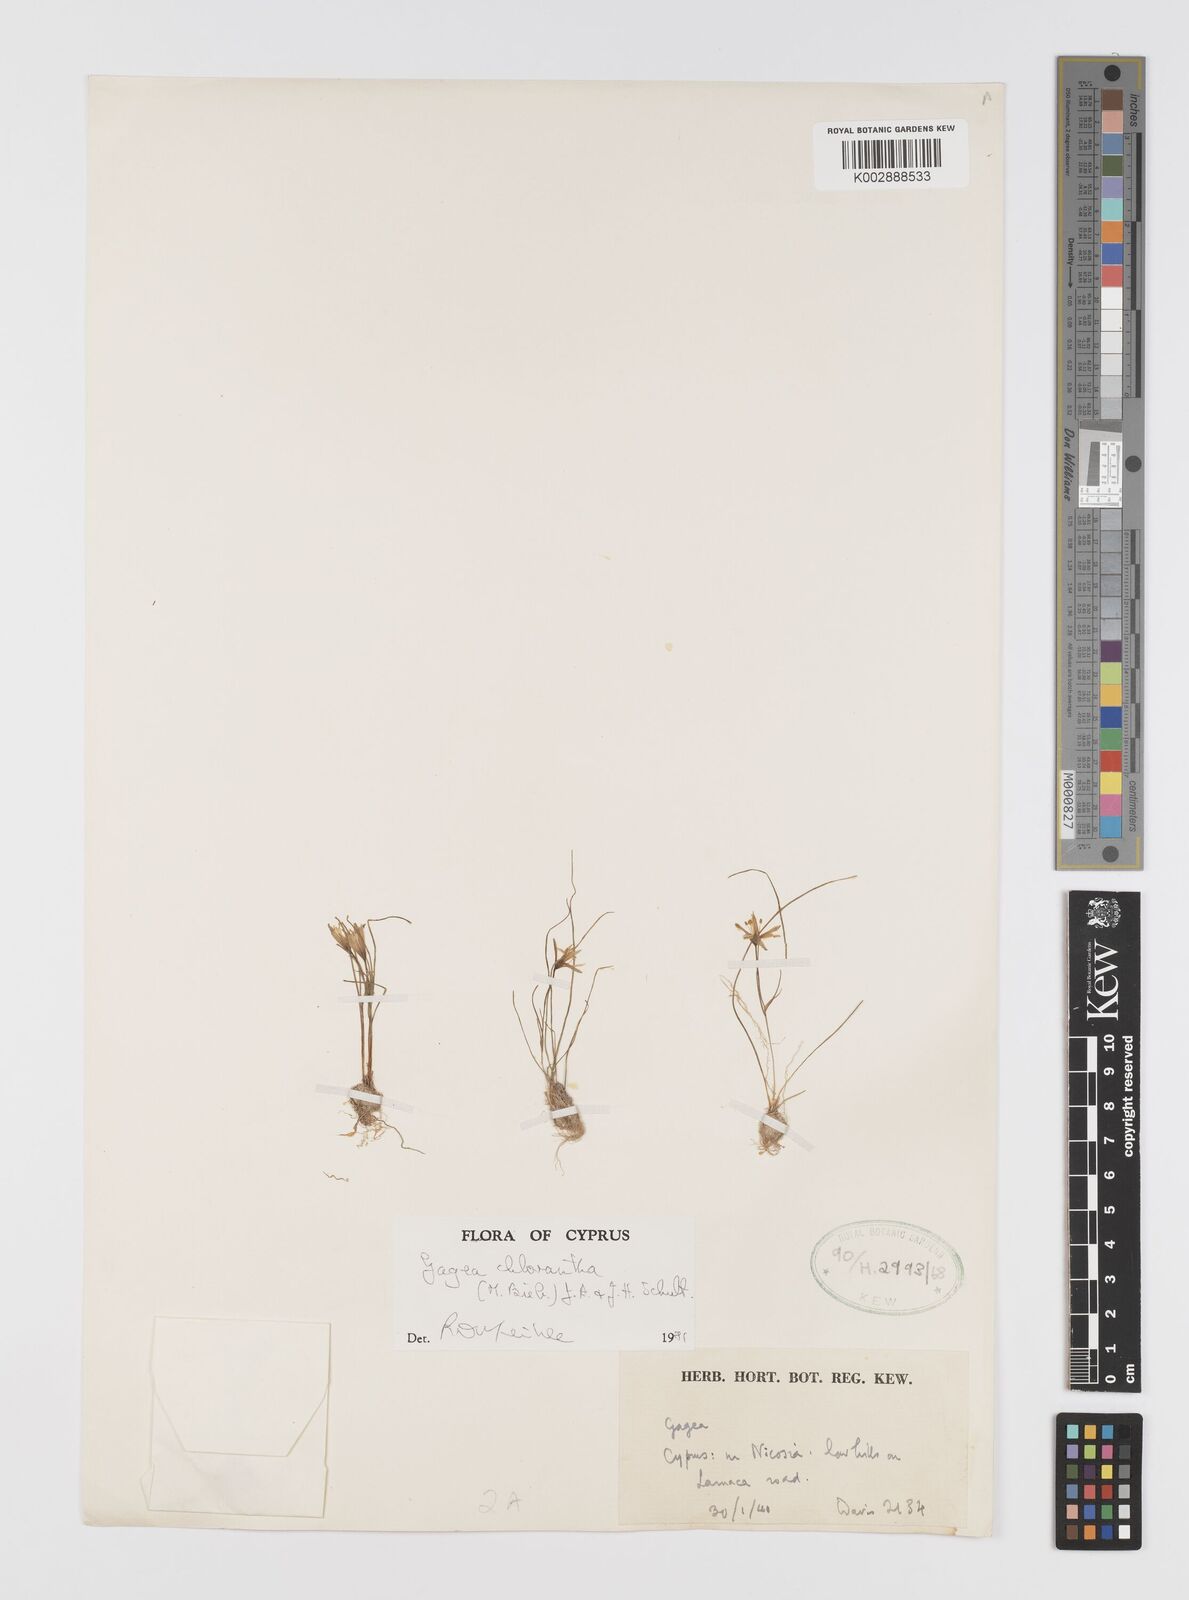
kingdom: Plantae
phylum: Tracheophyta
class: Liliopsida
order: Liliales
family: Liliaceae
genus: Gagea
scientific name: Gagea chlorantha
